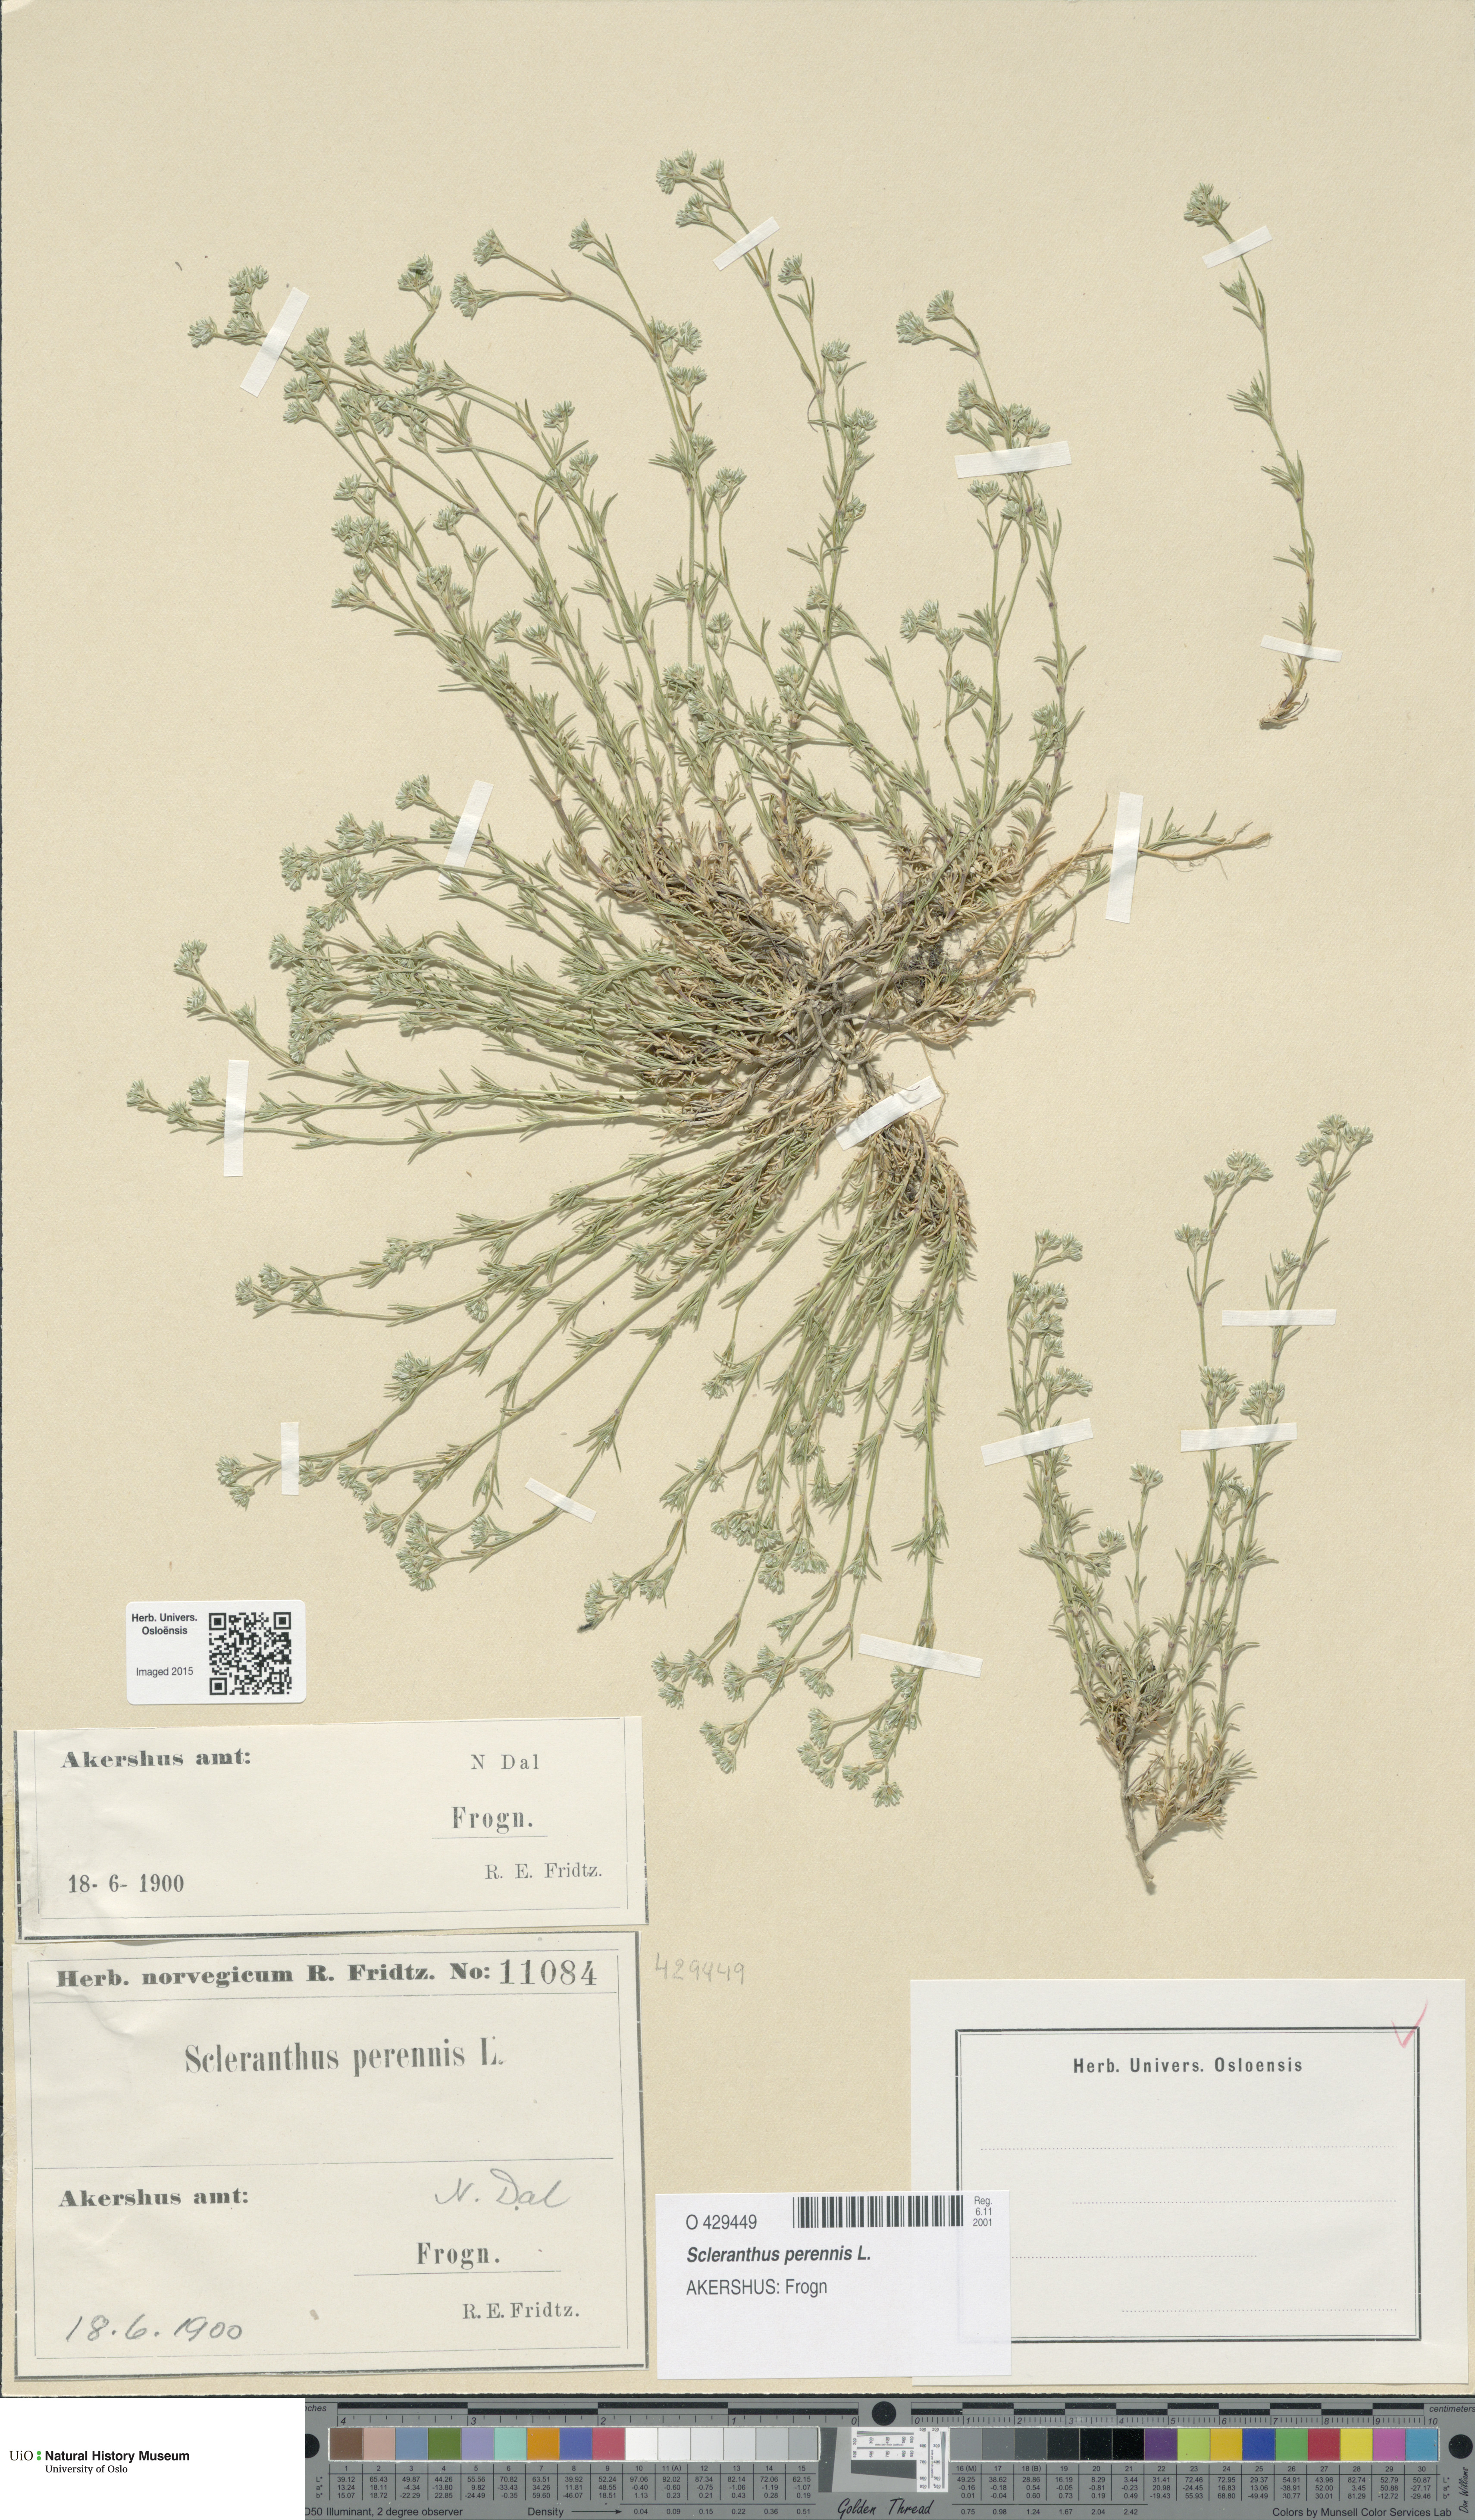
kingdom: Plantae
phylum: Tracheophyta
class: Magnoliopsida
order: Caryophyllales
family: Caryophyllaceae
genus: Scleranthus
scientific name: Scleranthus perennis
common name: Perennial knawel
